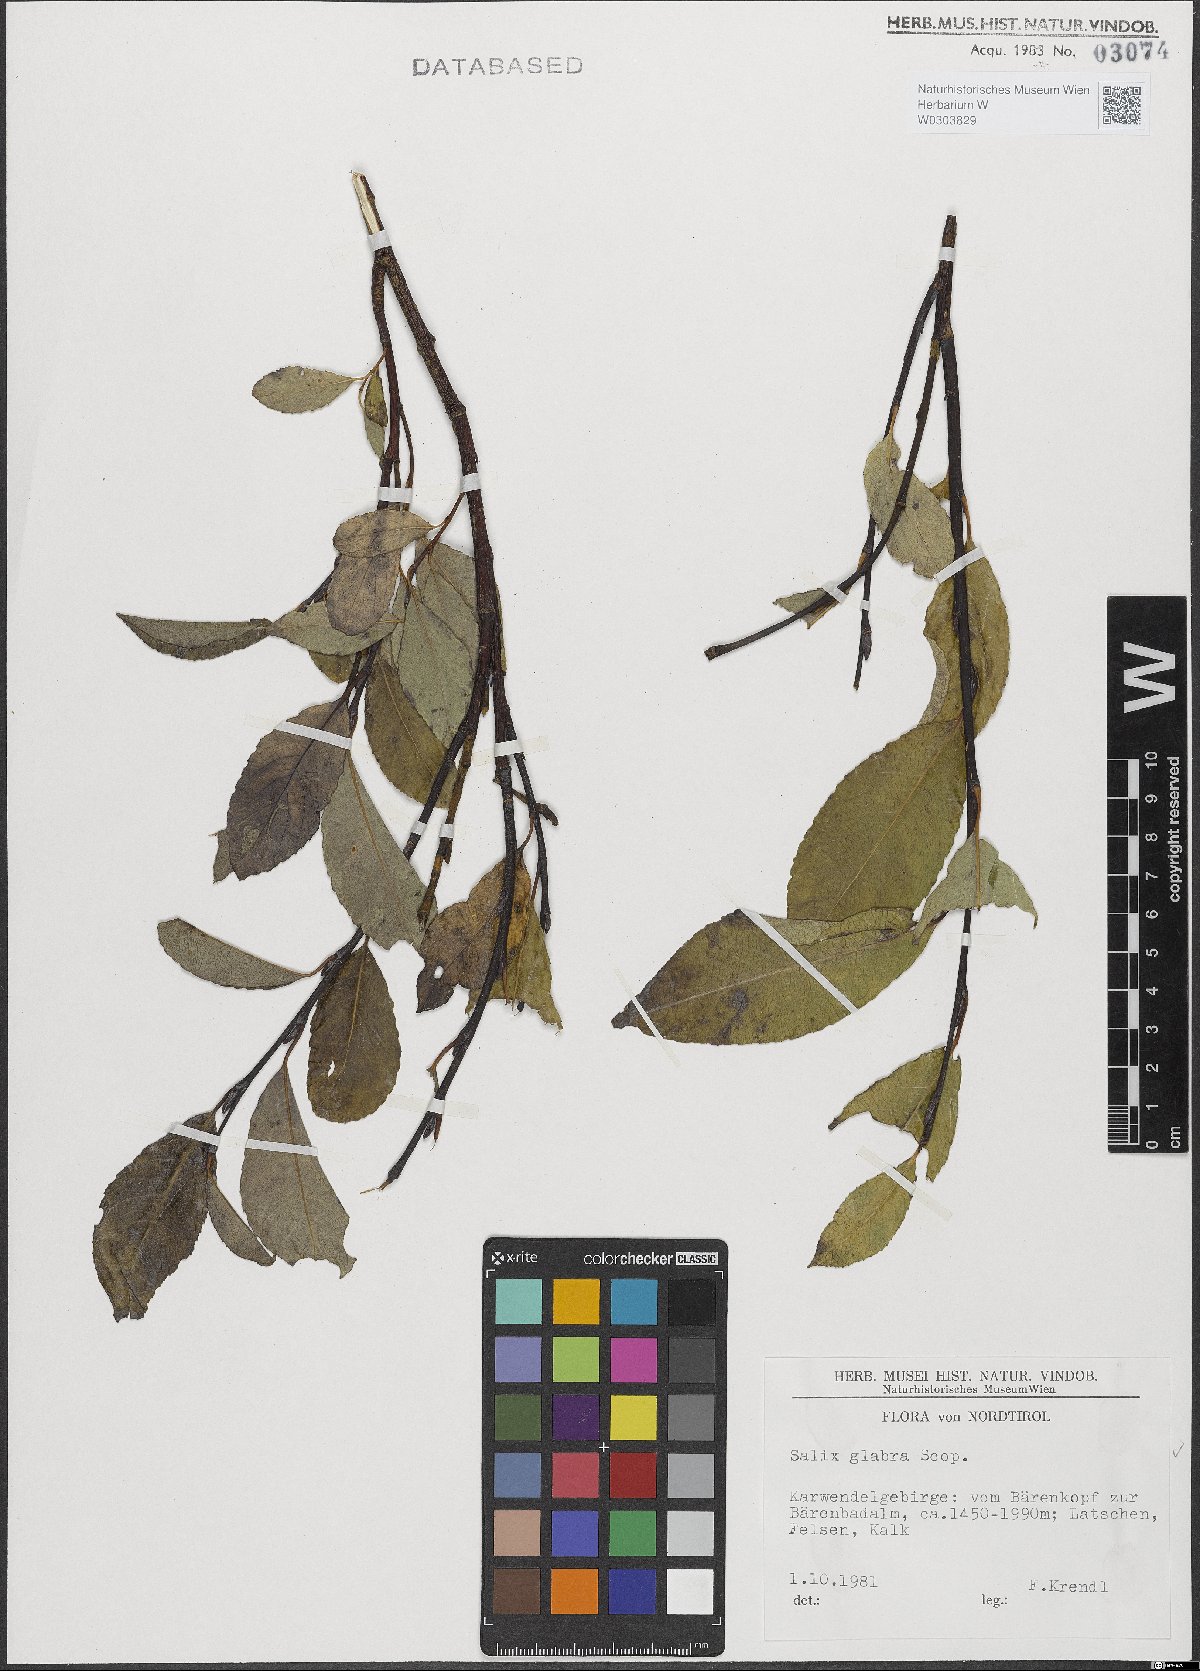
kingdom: Plantae
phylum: Tracheophyta
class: Magnoliopsida
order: Malpighiales
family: Salicaceae
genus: Salix
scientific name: Salix glabra
